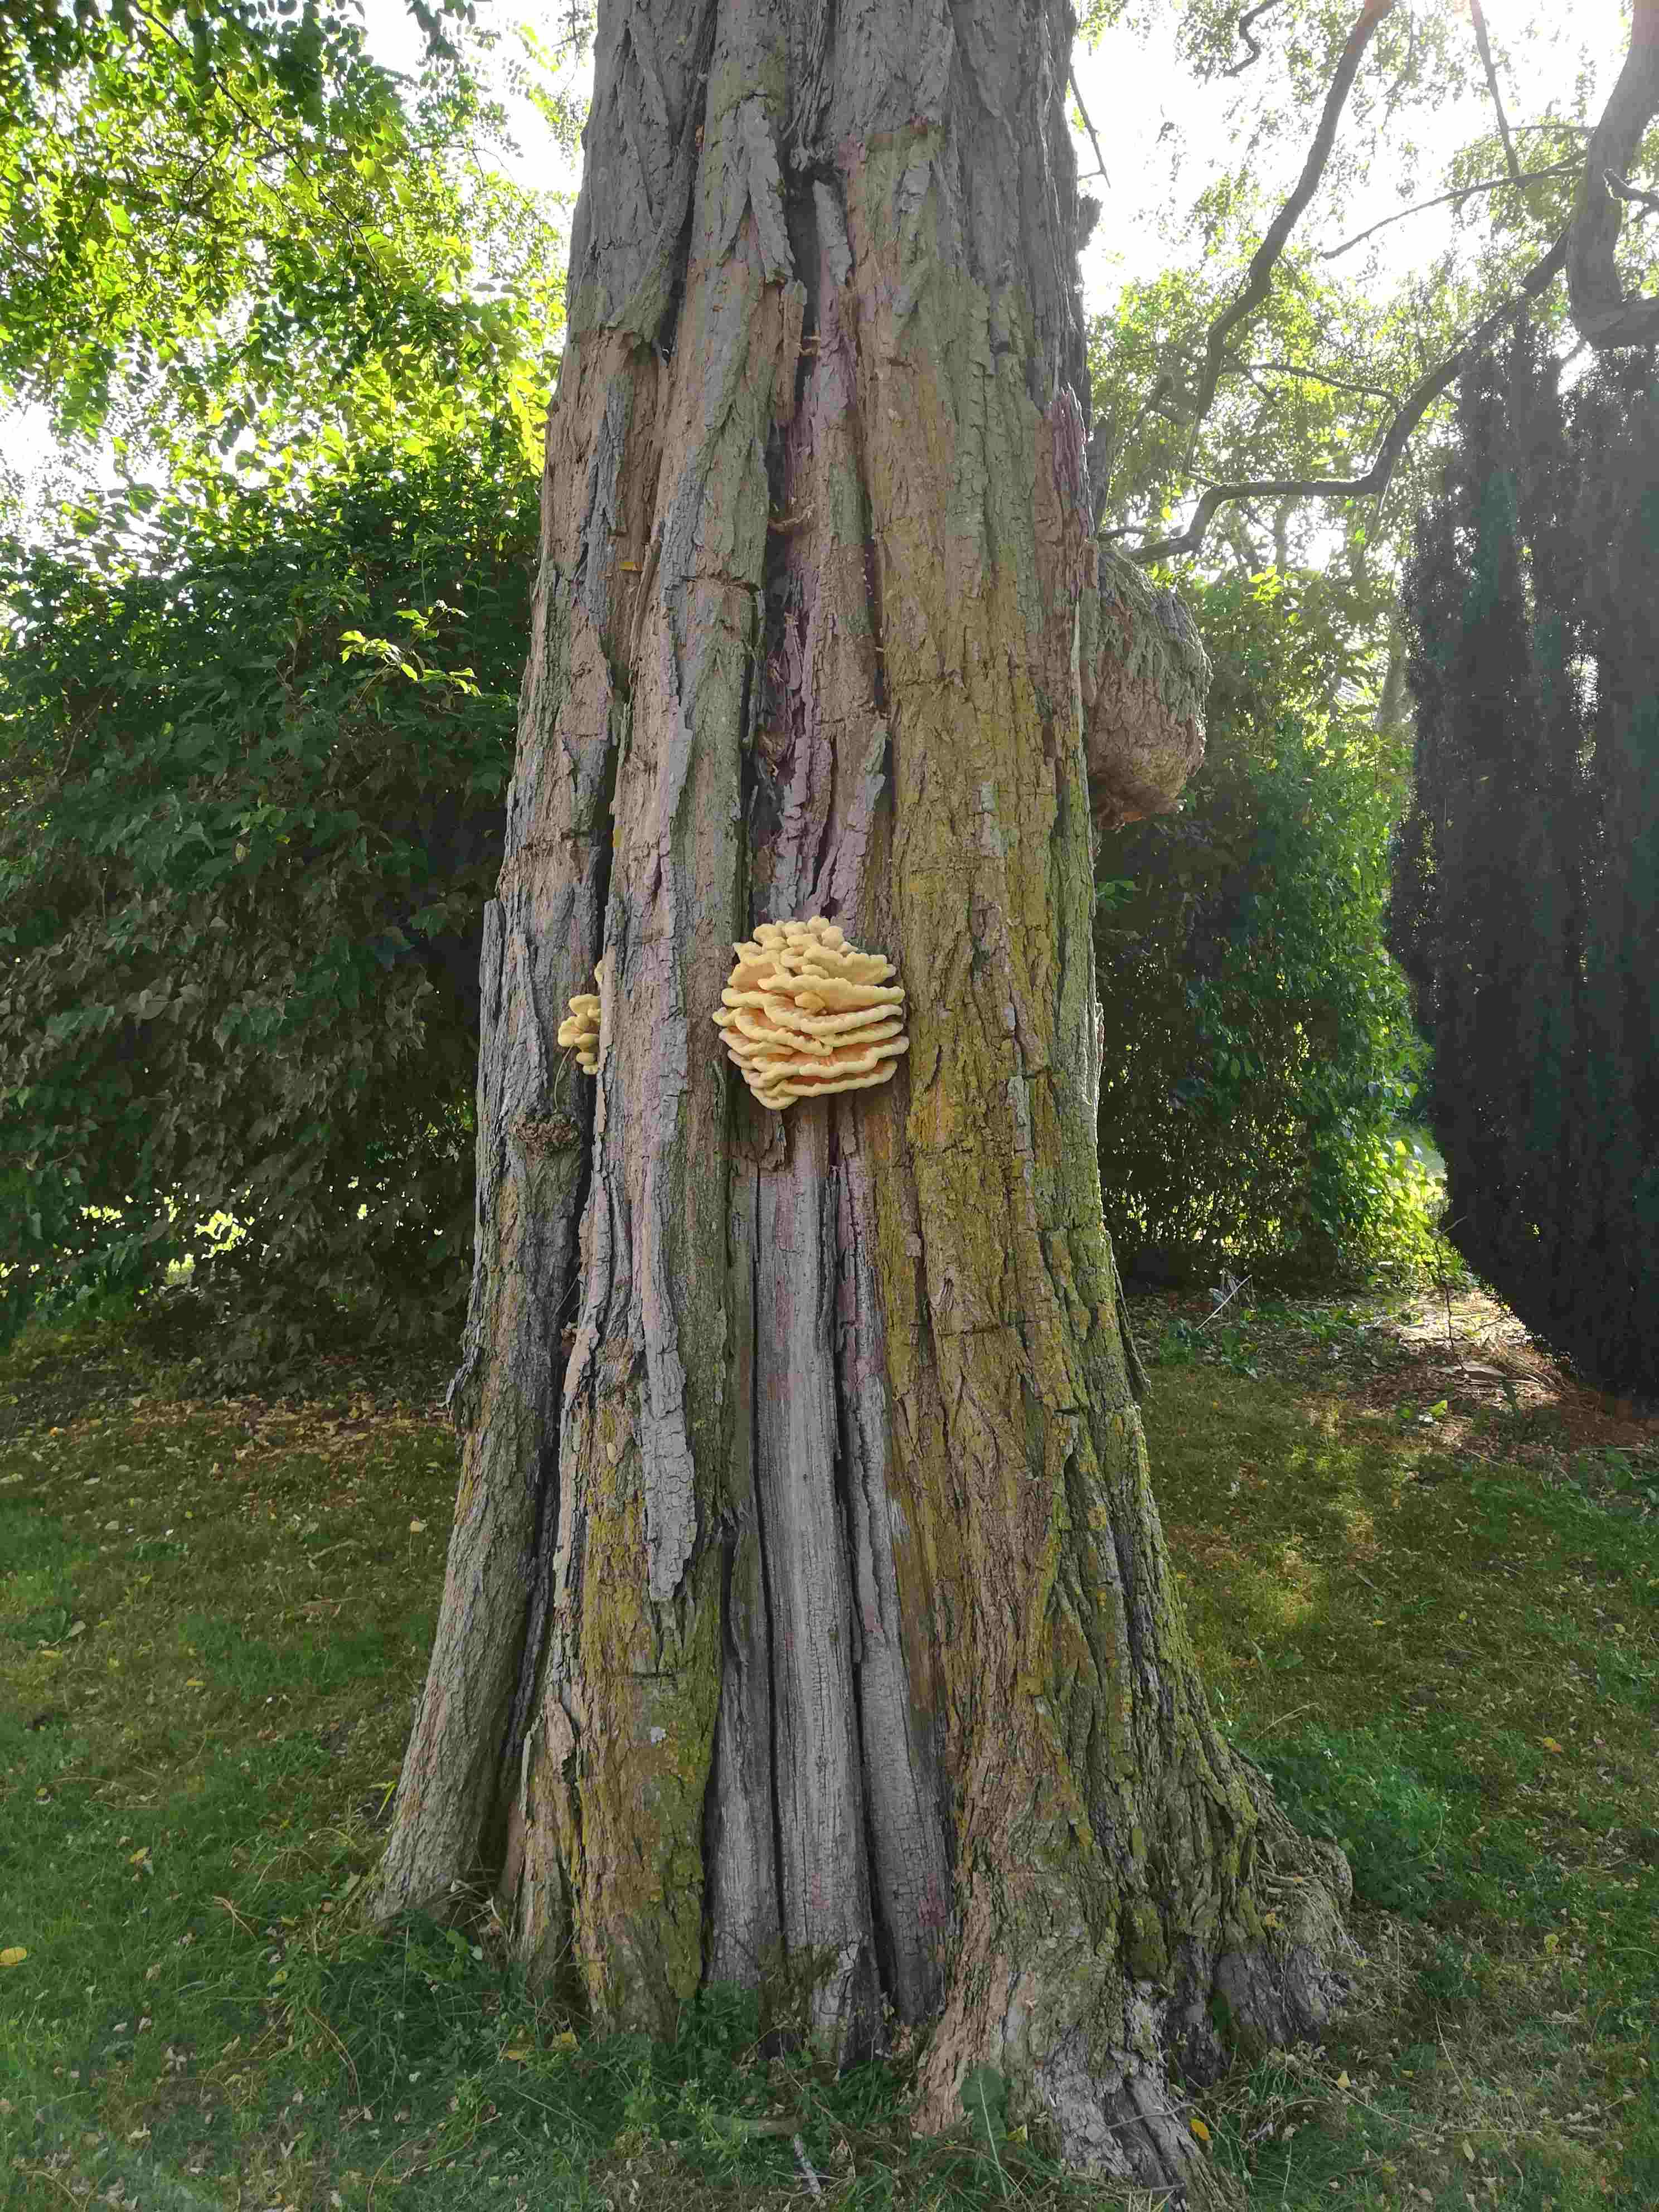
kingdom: Fungi
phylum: Basidiomycota
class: Agaricomycetes
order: Polyporales
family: Laetiporaceae
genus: Laetiporus
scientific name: Laetiporus sulphureus
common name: svovlporesvamp
